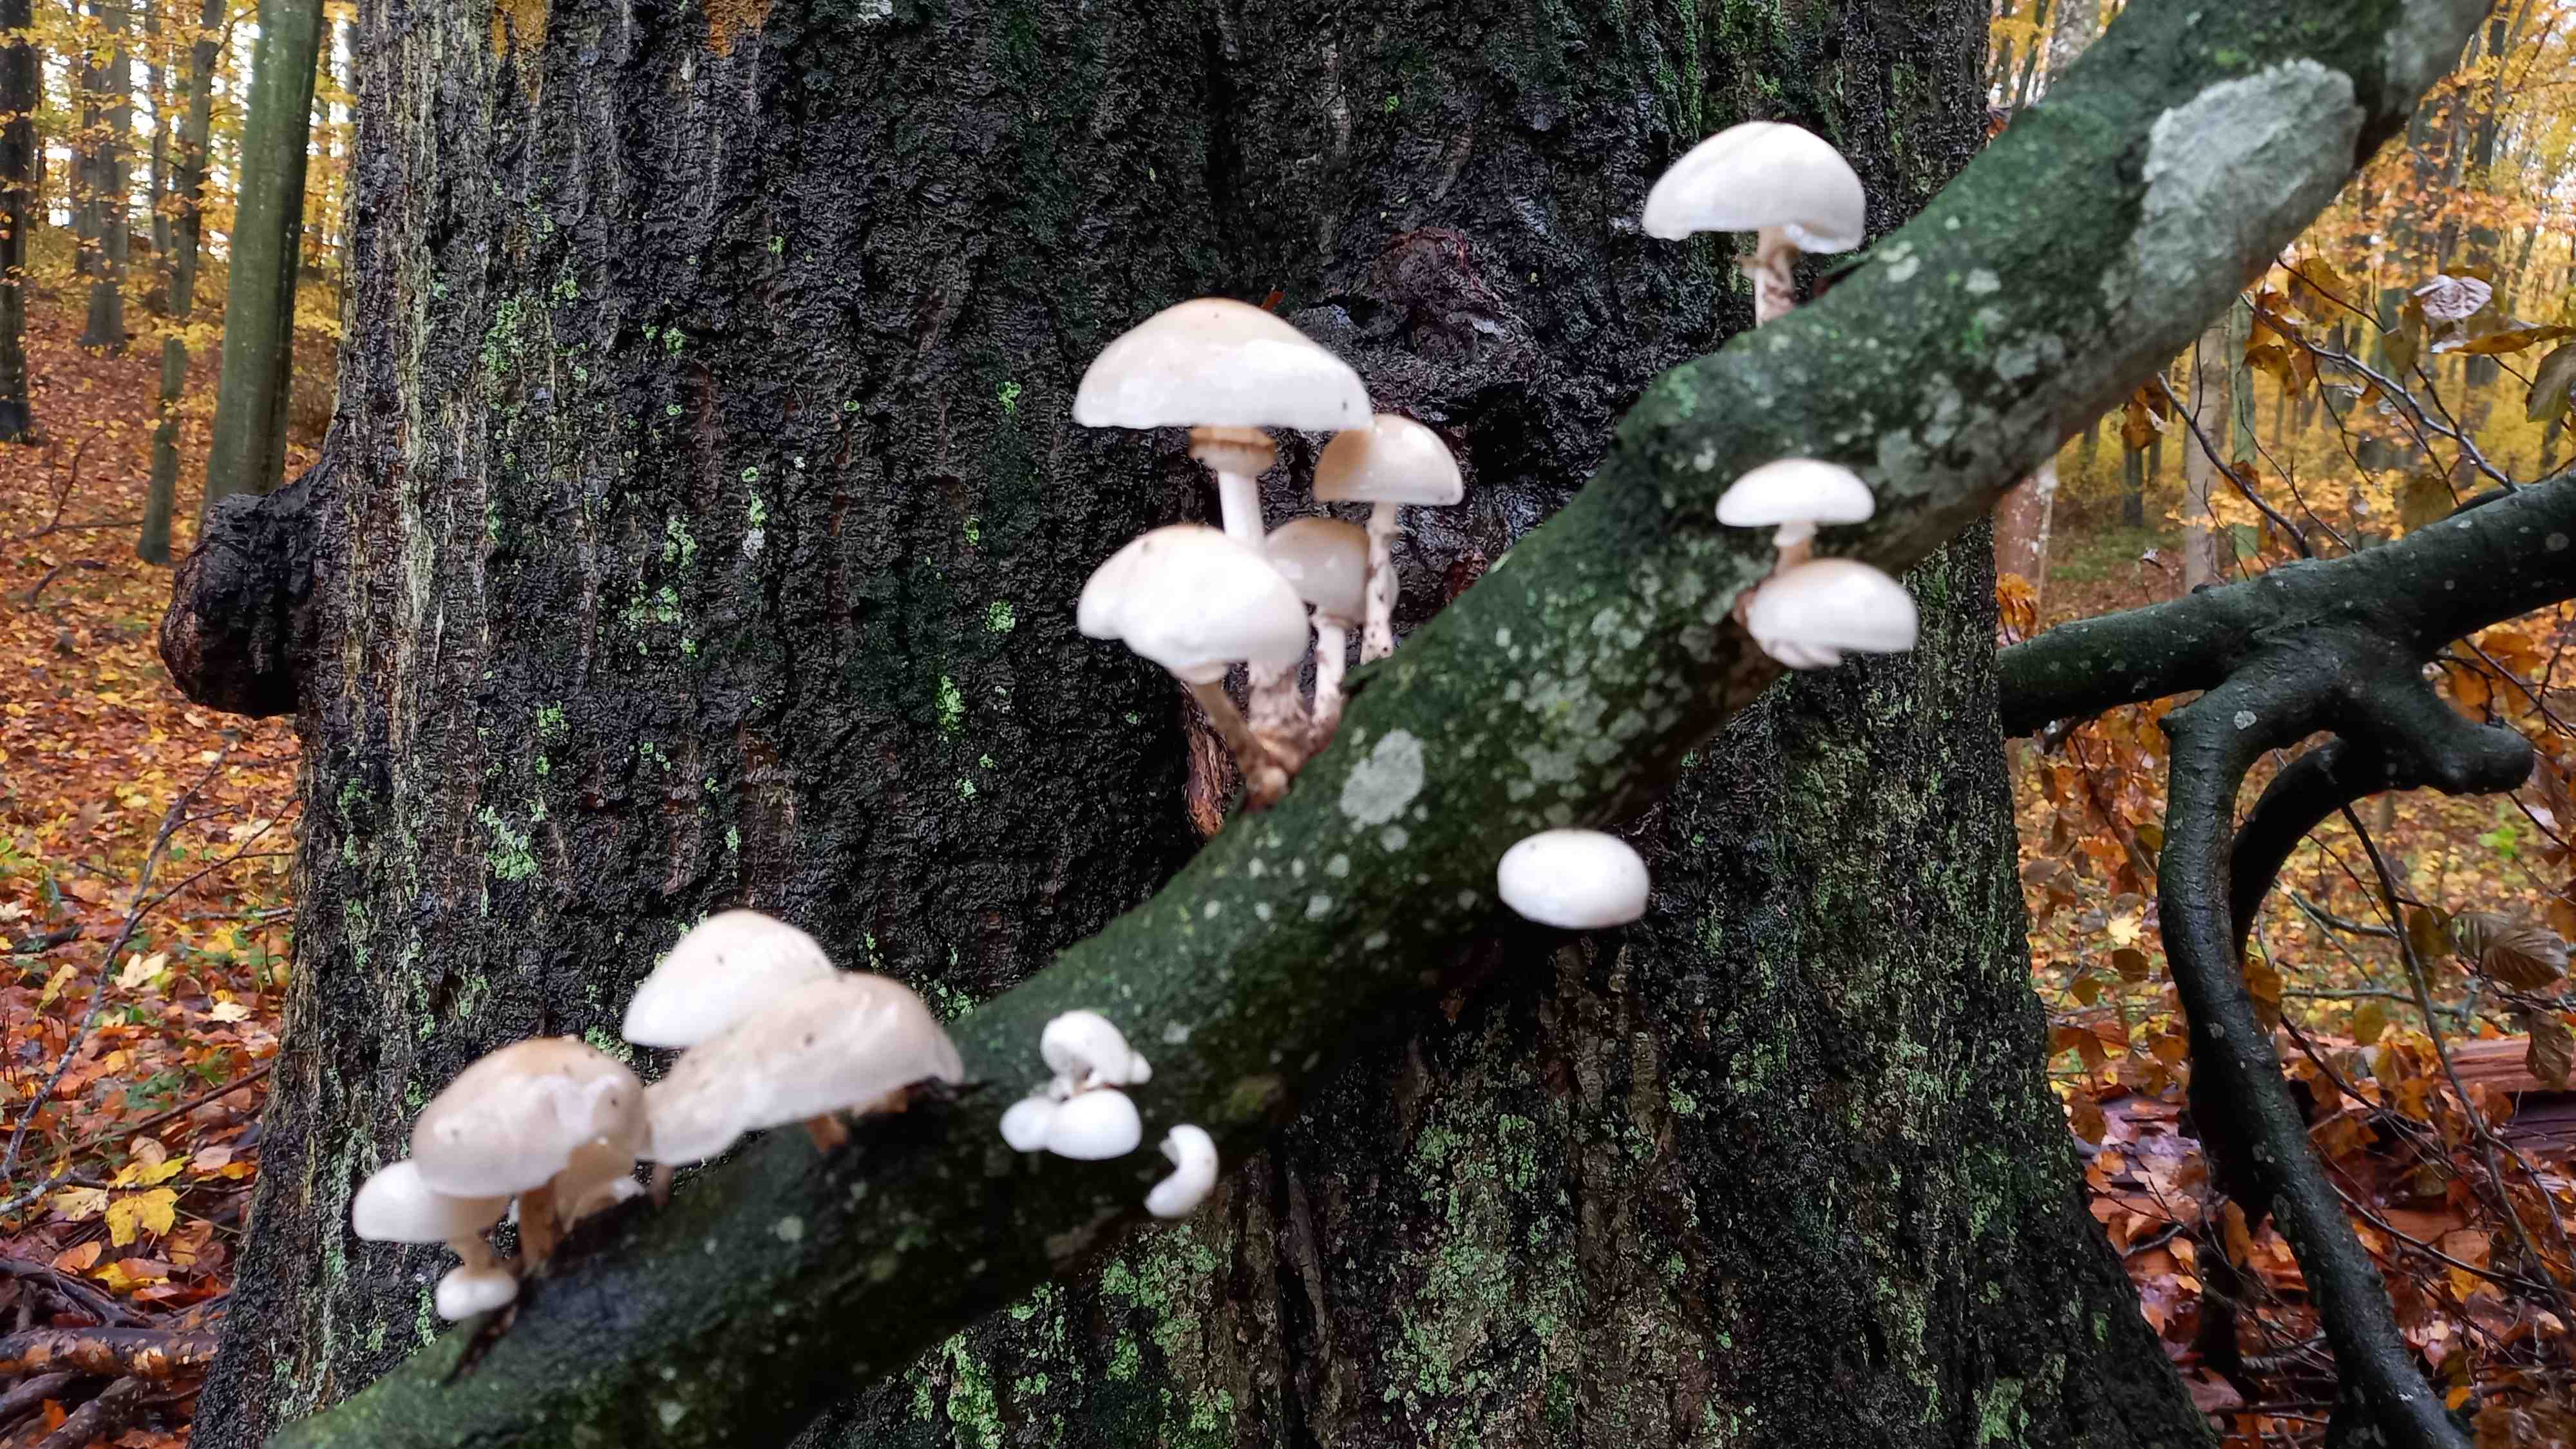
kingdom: Fungi
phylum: Basidiomycota
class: Agaricomycetes
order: Agaricales
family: Physalacriaceae
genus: Mucidula
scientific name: Mucidula mucida
